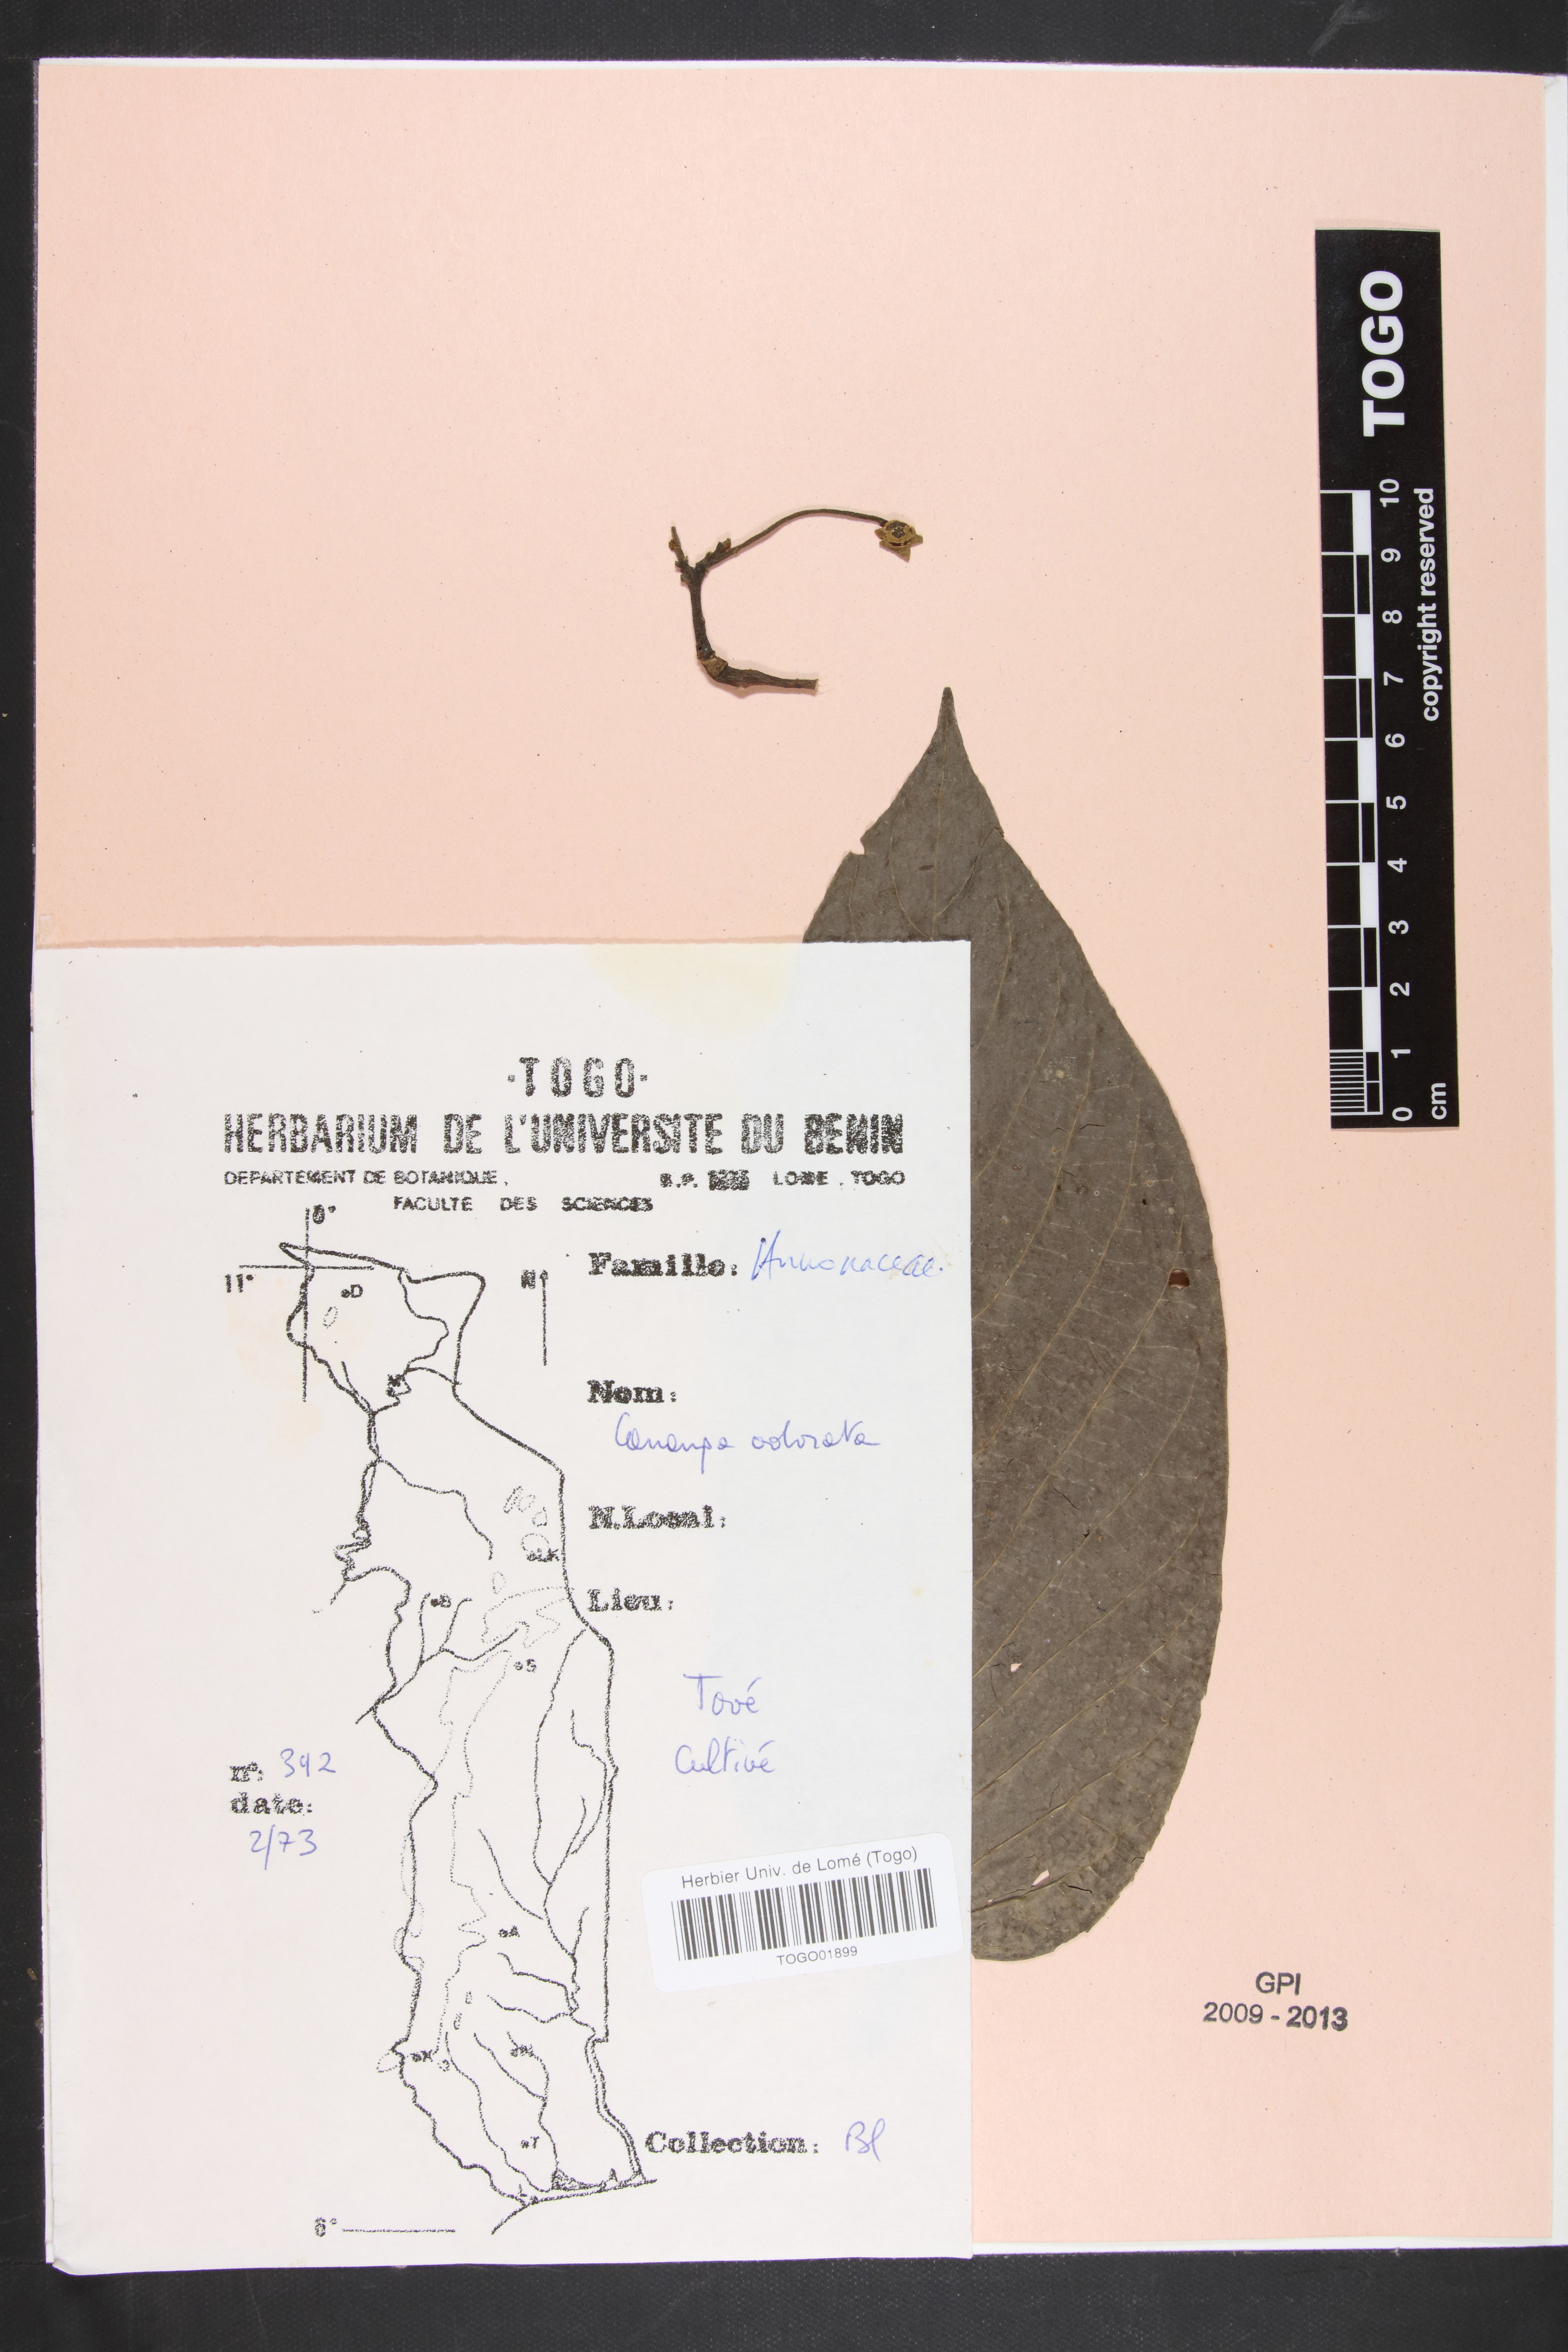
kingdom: Plantae
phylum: Tracheophyta
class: Magnoliopsida
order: Magnoliales
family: Annonaceae
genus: Cananga
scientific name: Cananga odorata
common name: Cananga tree
